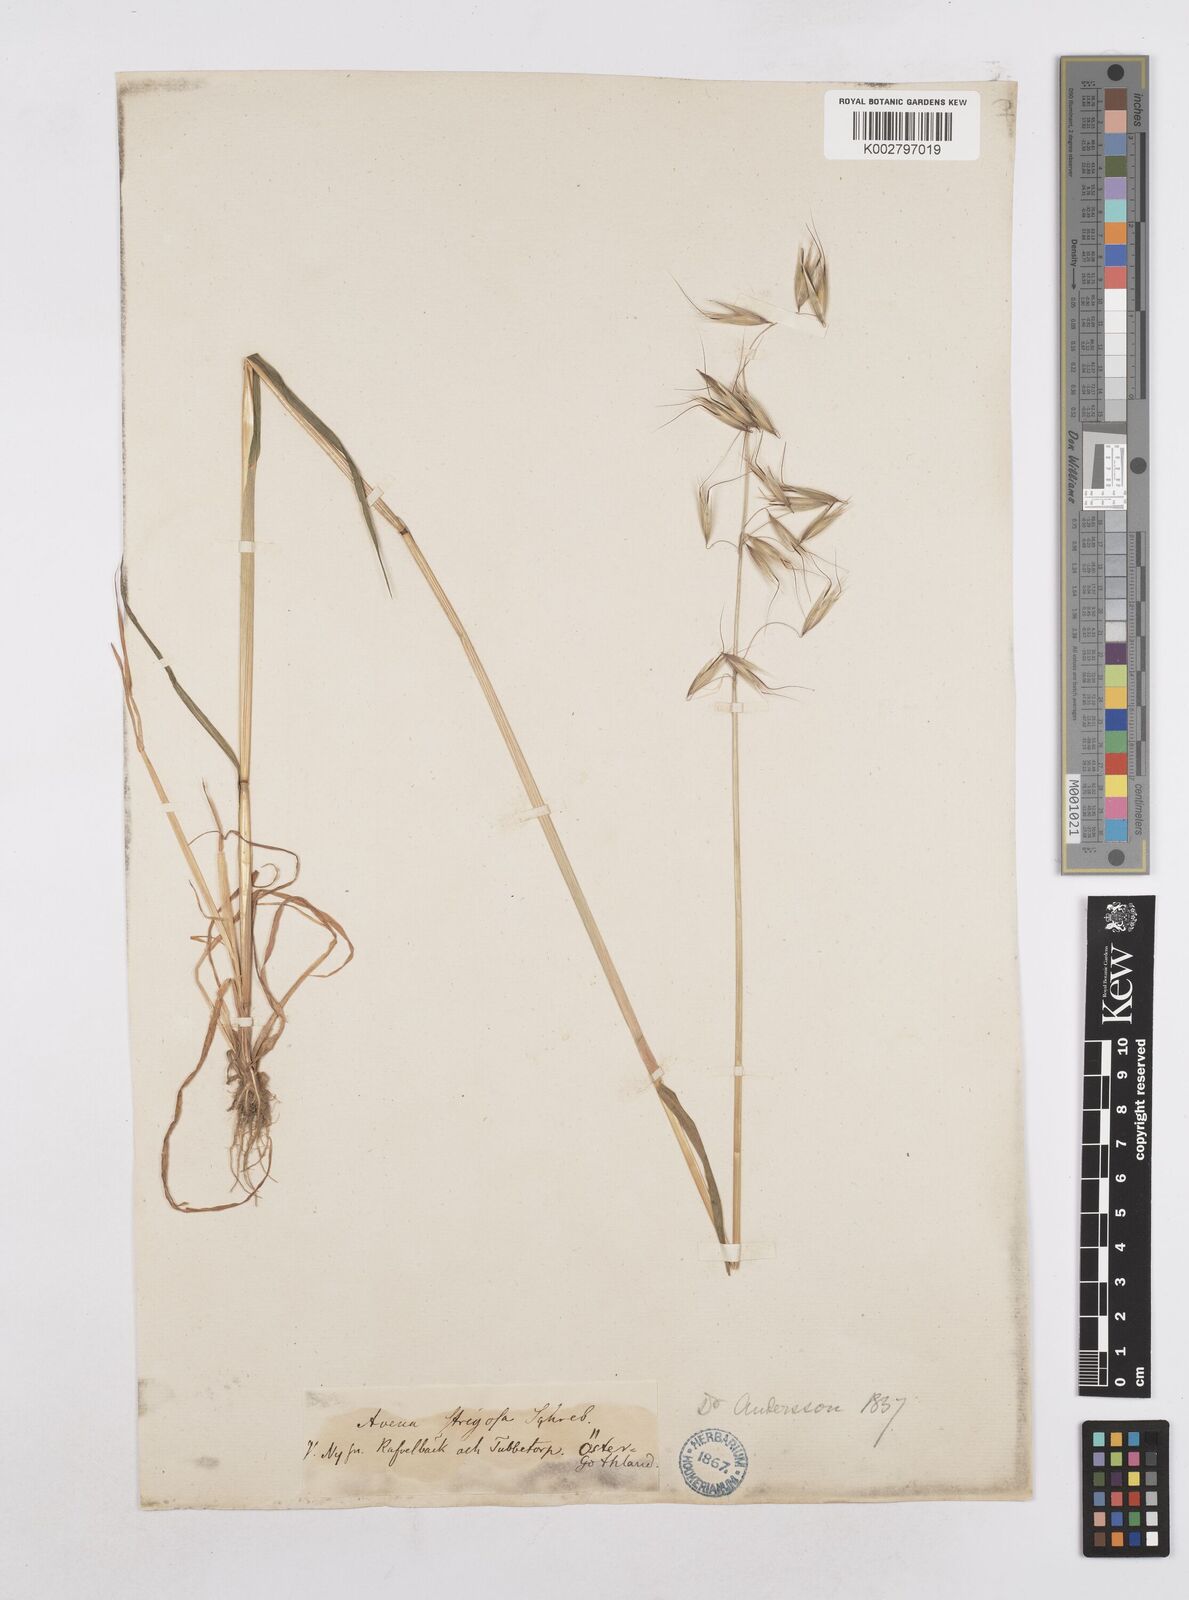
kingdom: Plantae
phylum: Tracheophyta
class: Liliopsida
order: Poales
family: Poaceae
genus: Avena
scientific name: Avena strigosa
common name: Bristle oat
